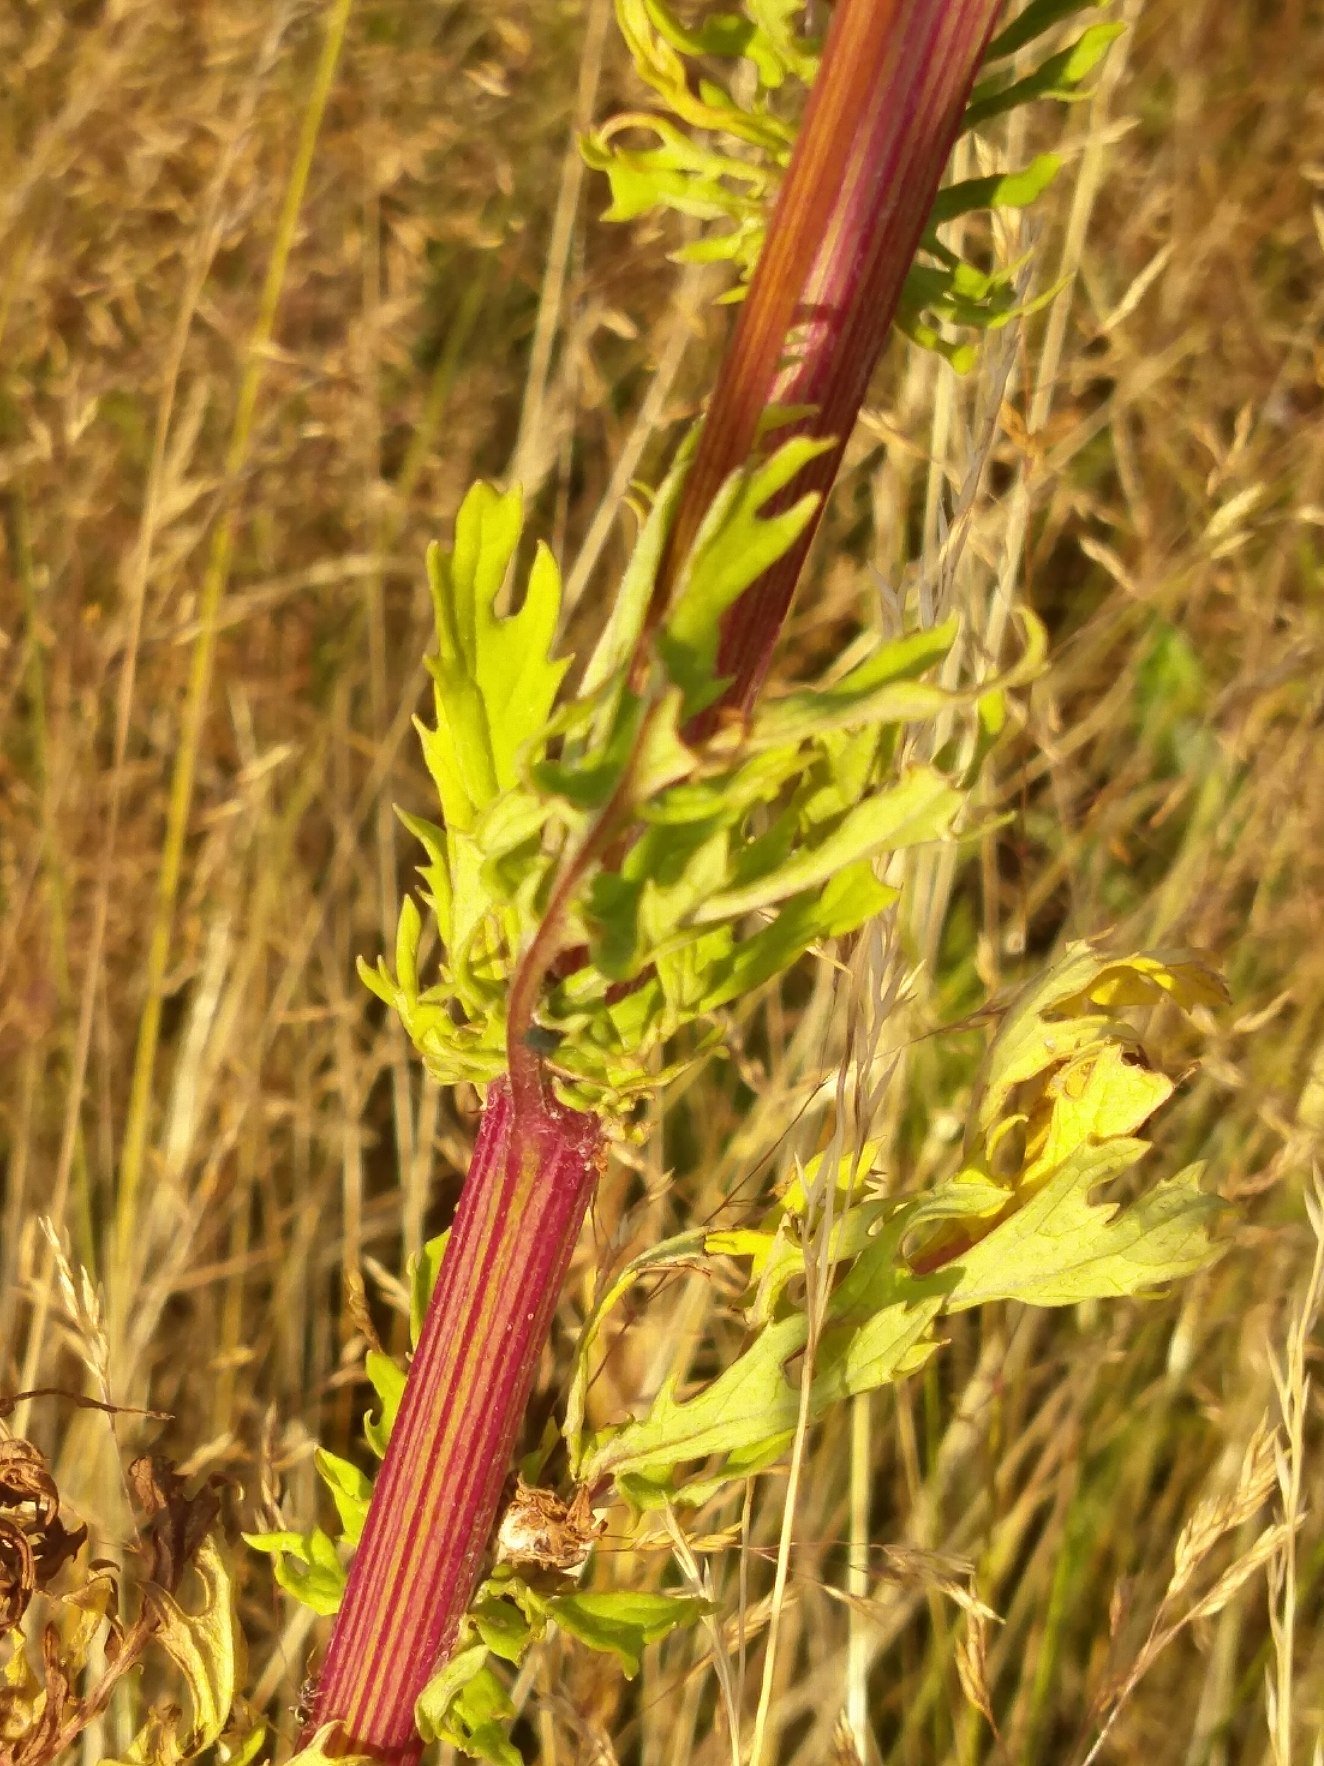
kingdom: Plantae
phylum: Tracheophyta
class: Magnoliopsida
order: Asterales
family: Asteraceae
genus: Jacobaea
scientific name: Jacobaea vulgaris
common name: Eng-brandbæger
